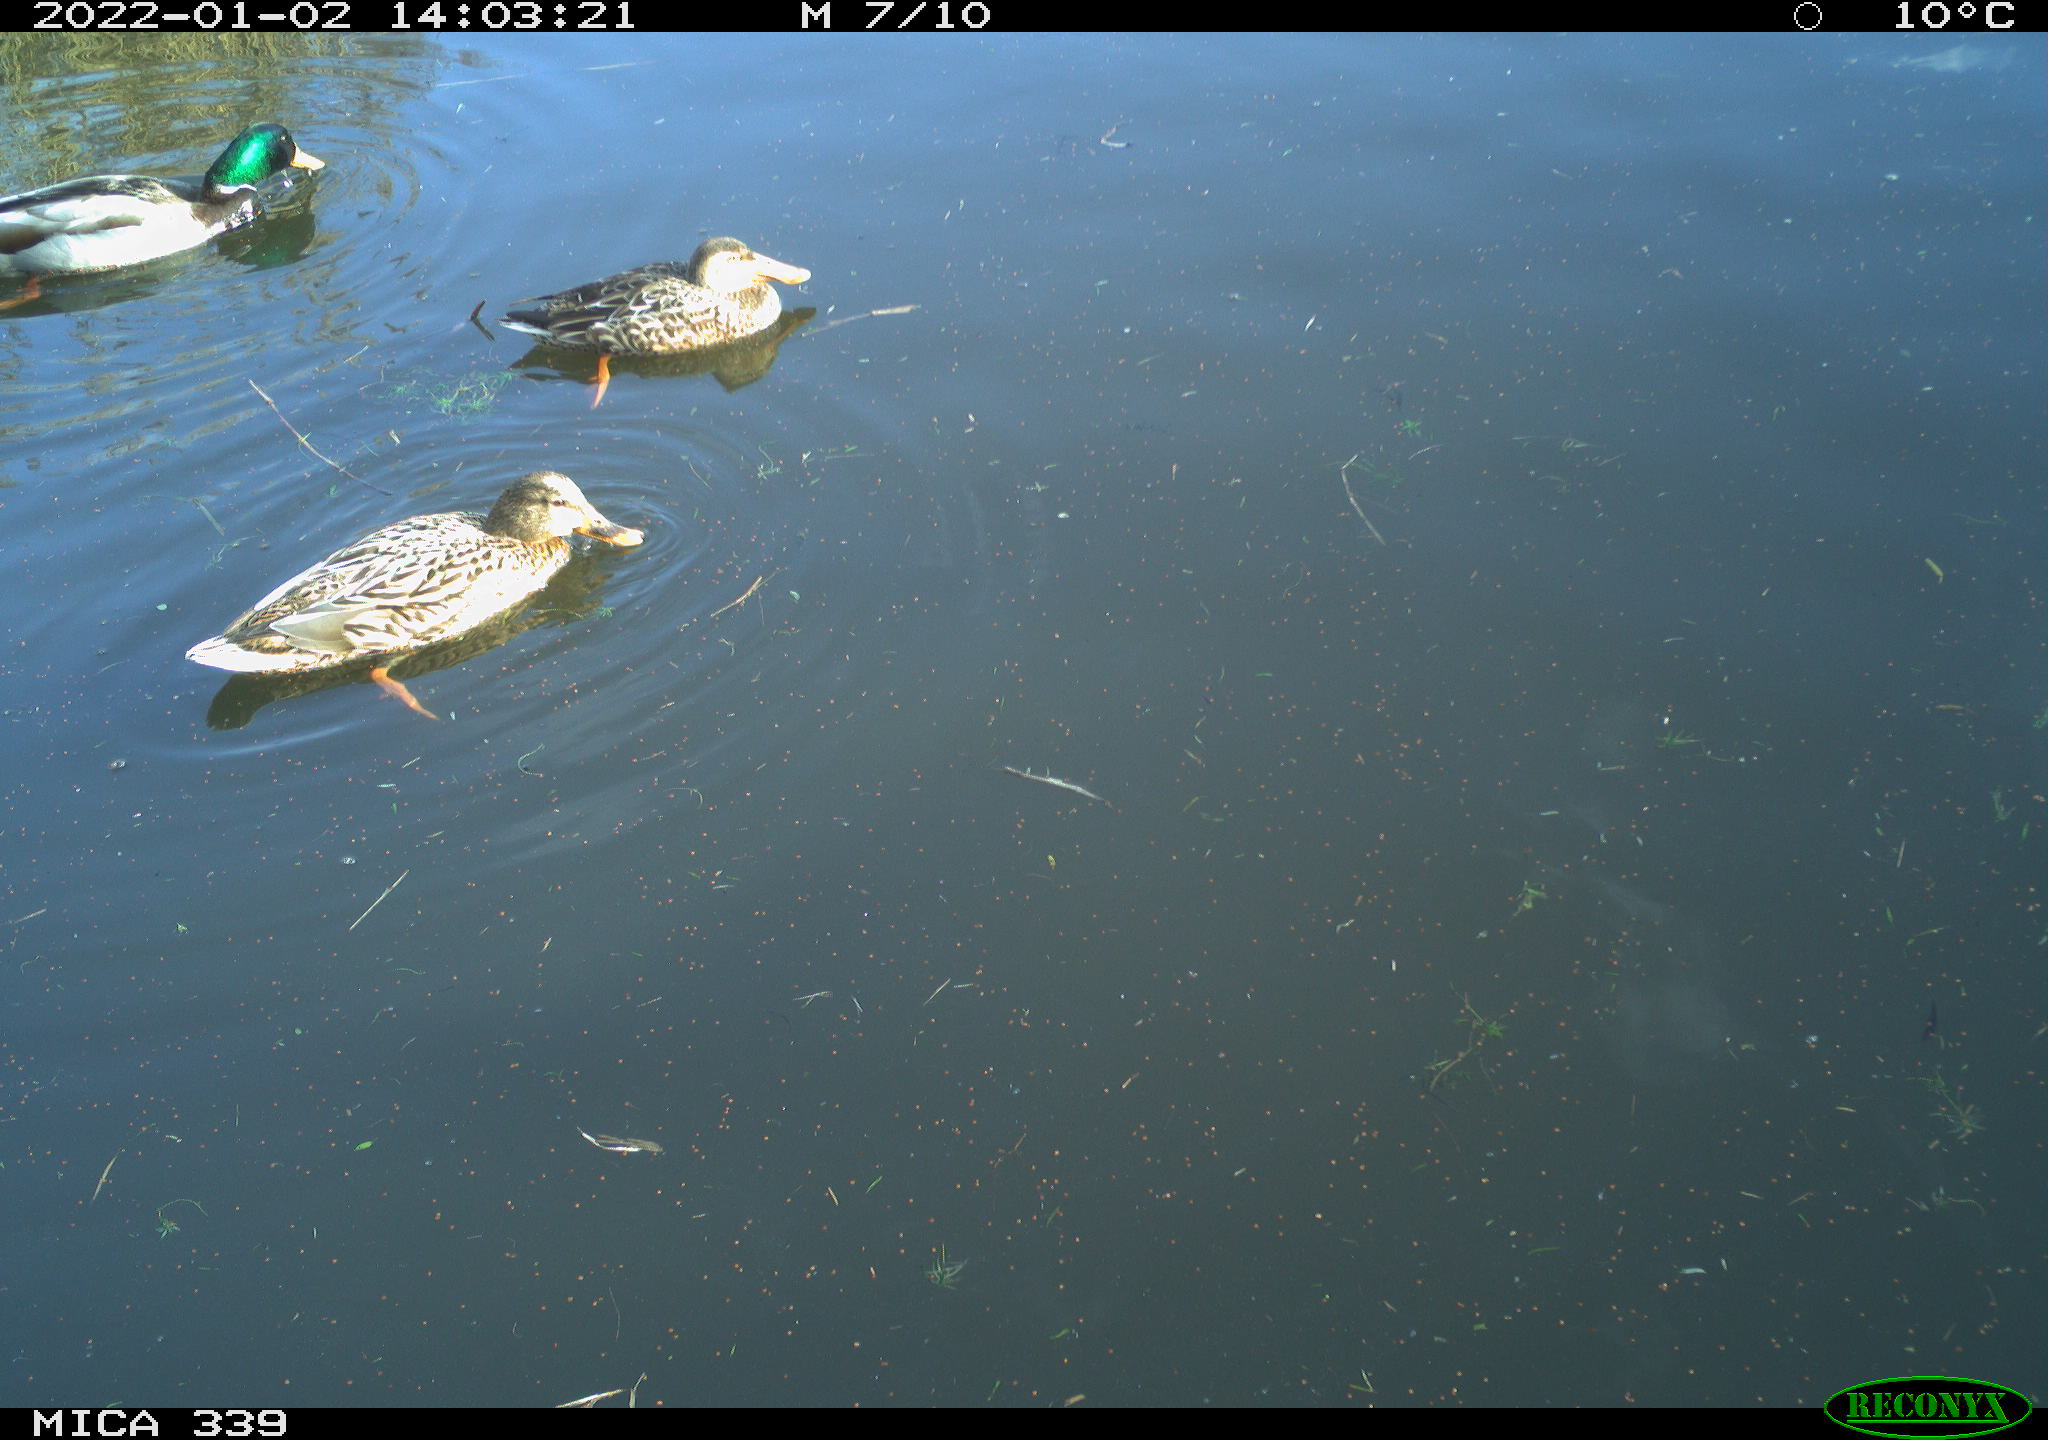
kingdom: Animalia
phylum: Chordata
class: Aves
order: Anseriformes
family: Anatidae
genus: Anas
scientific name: Anas platyrhynchos
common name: Mallard
